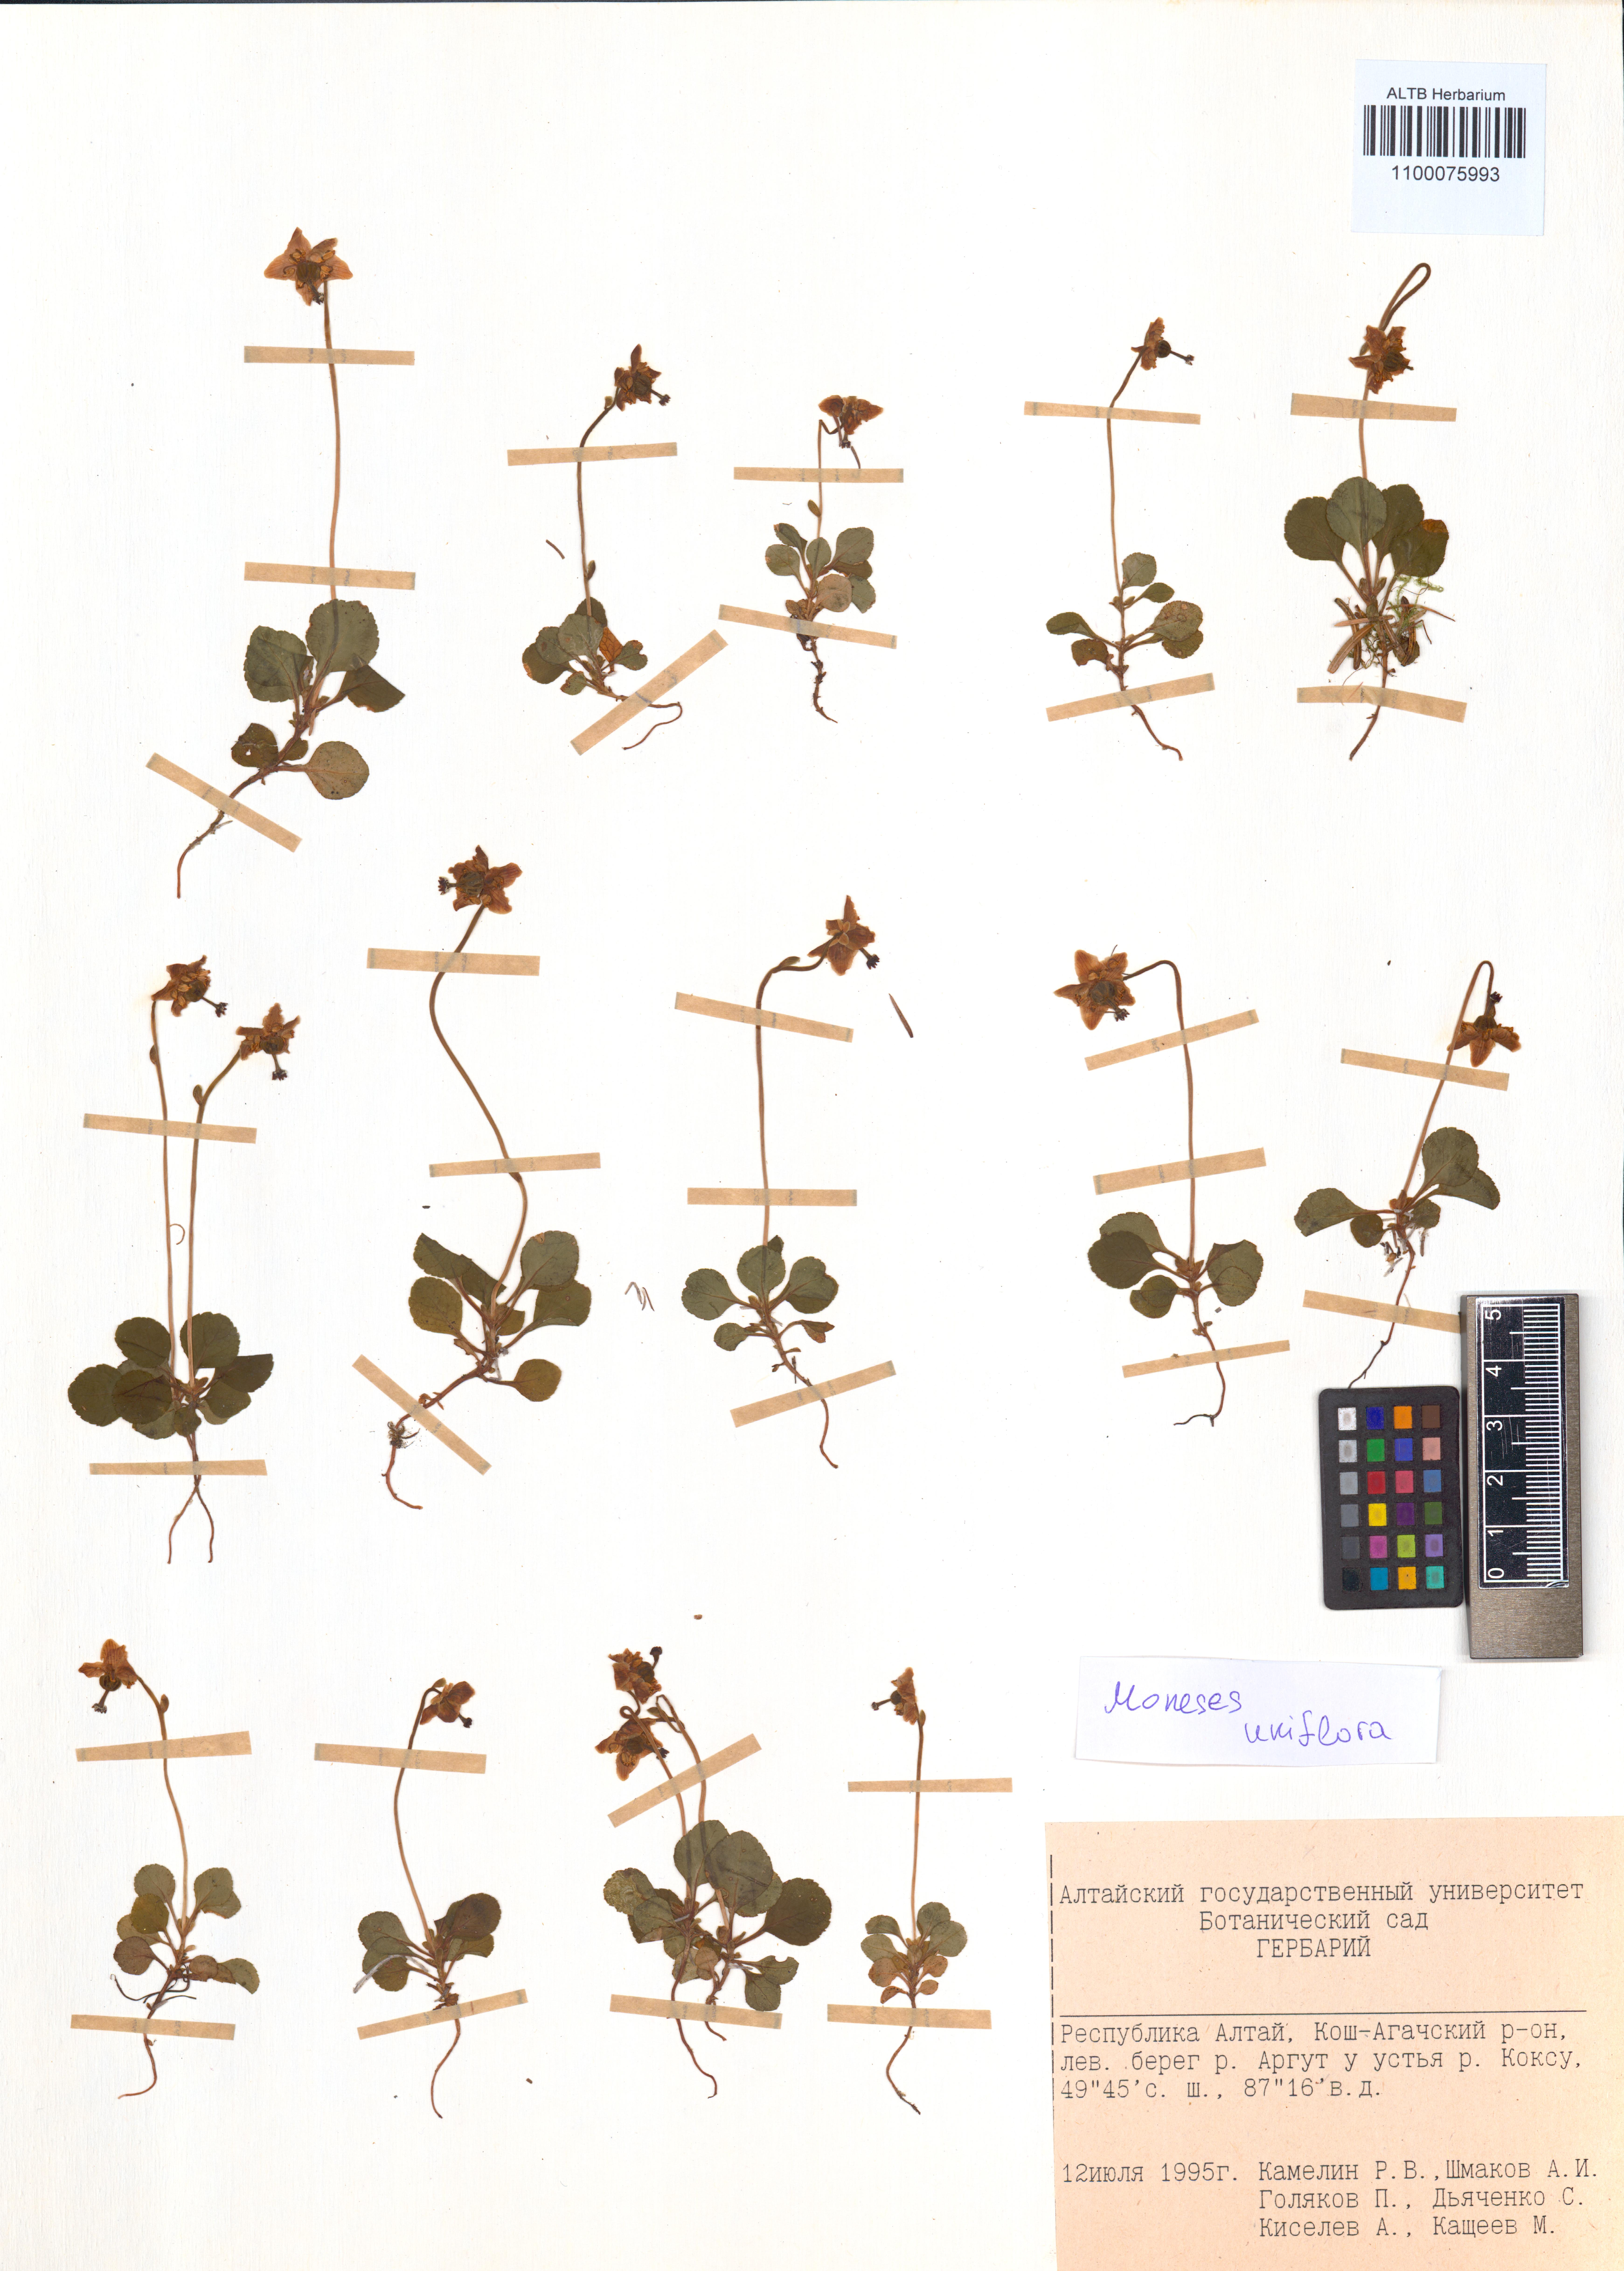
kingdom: Plantae
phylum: Tracheophyta
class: Magnoliopsida
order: Ericales
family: Ericaceae
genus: Moneses
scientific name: Moneses uniflora
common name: One-flowered wintergreen
